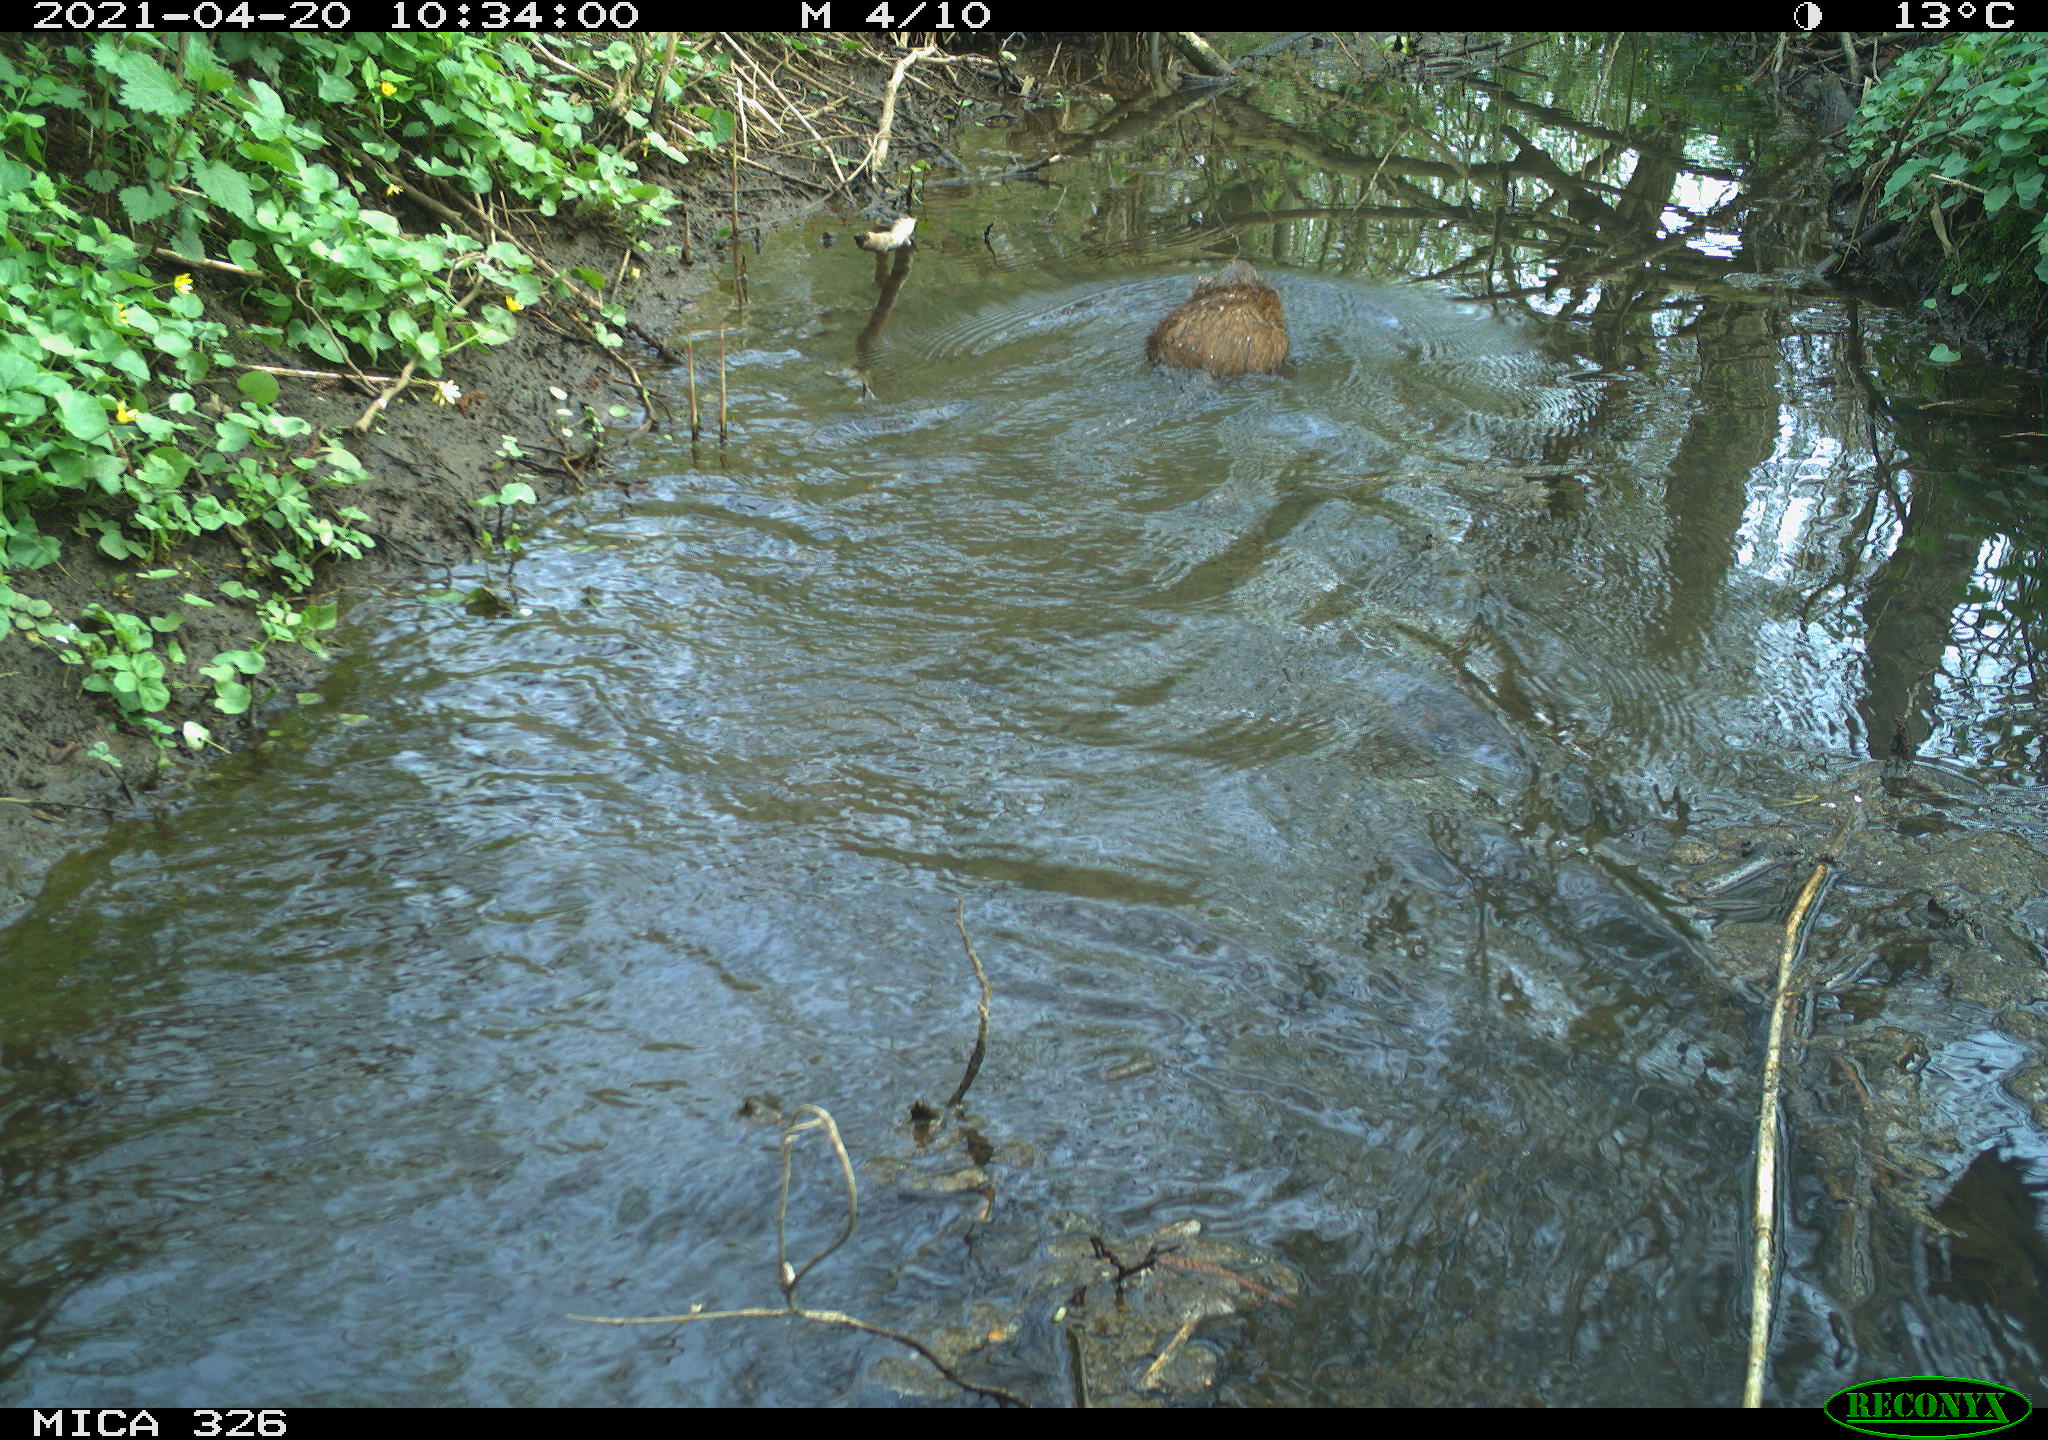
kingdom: Animalia
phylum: Chordata
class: Mammalia
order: Rodentia
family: Cricetidae
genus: Ondatra
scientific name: Ondatra zibethicus
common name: Muskrat
